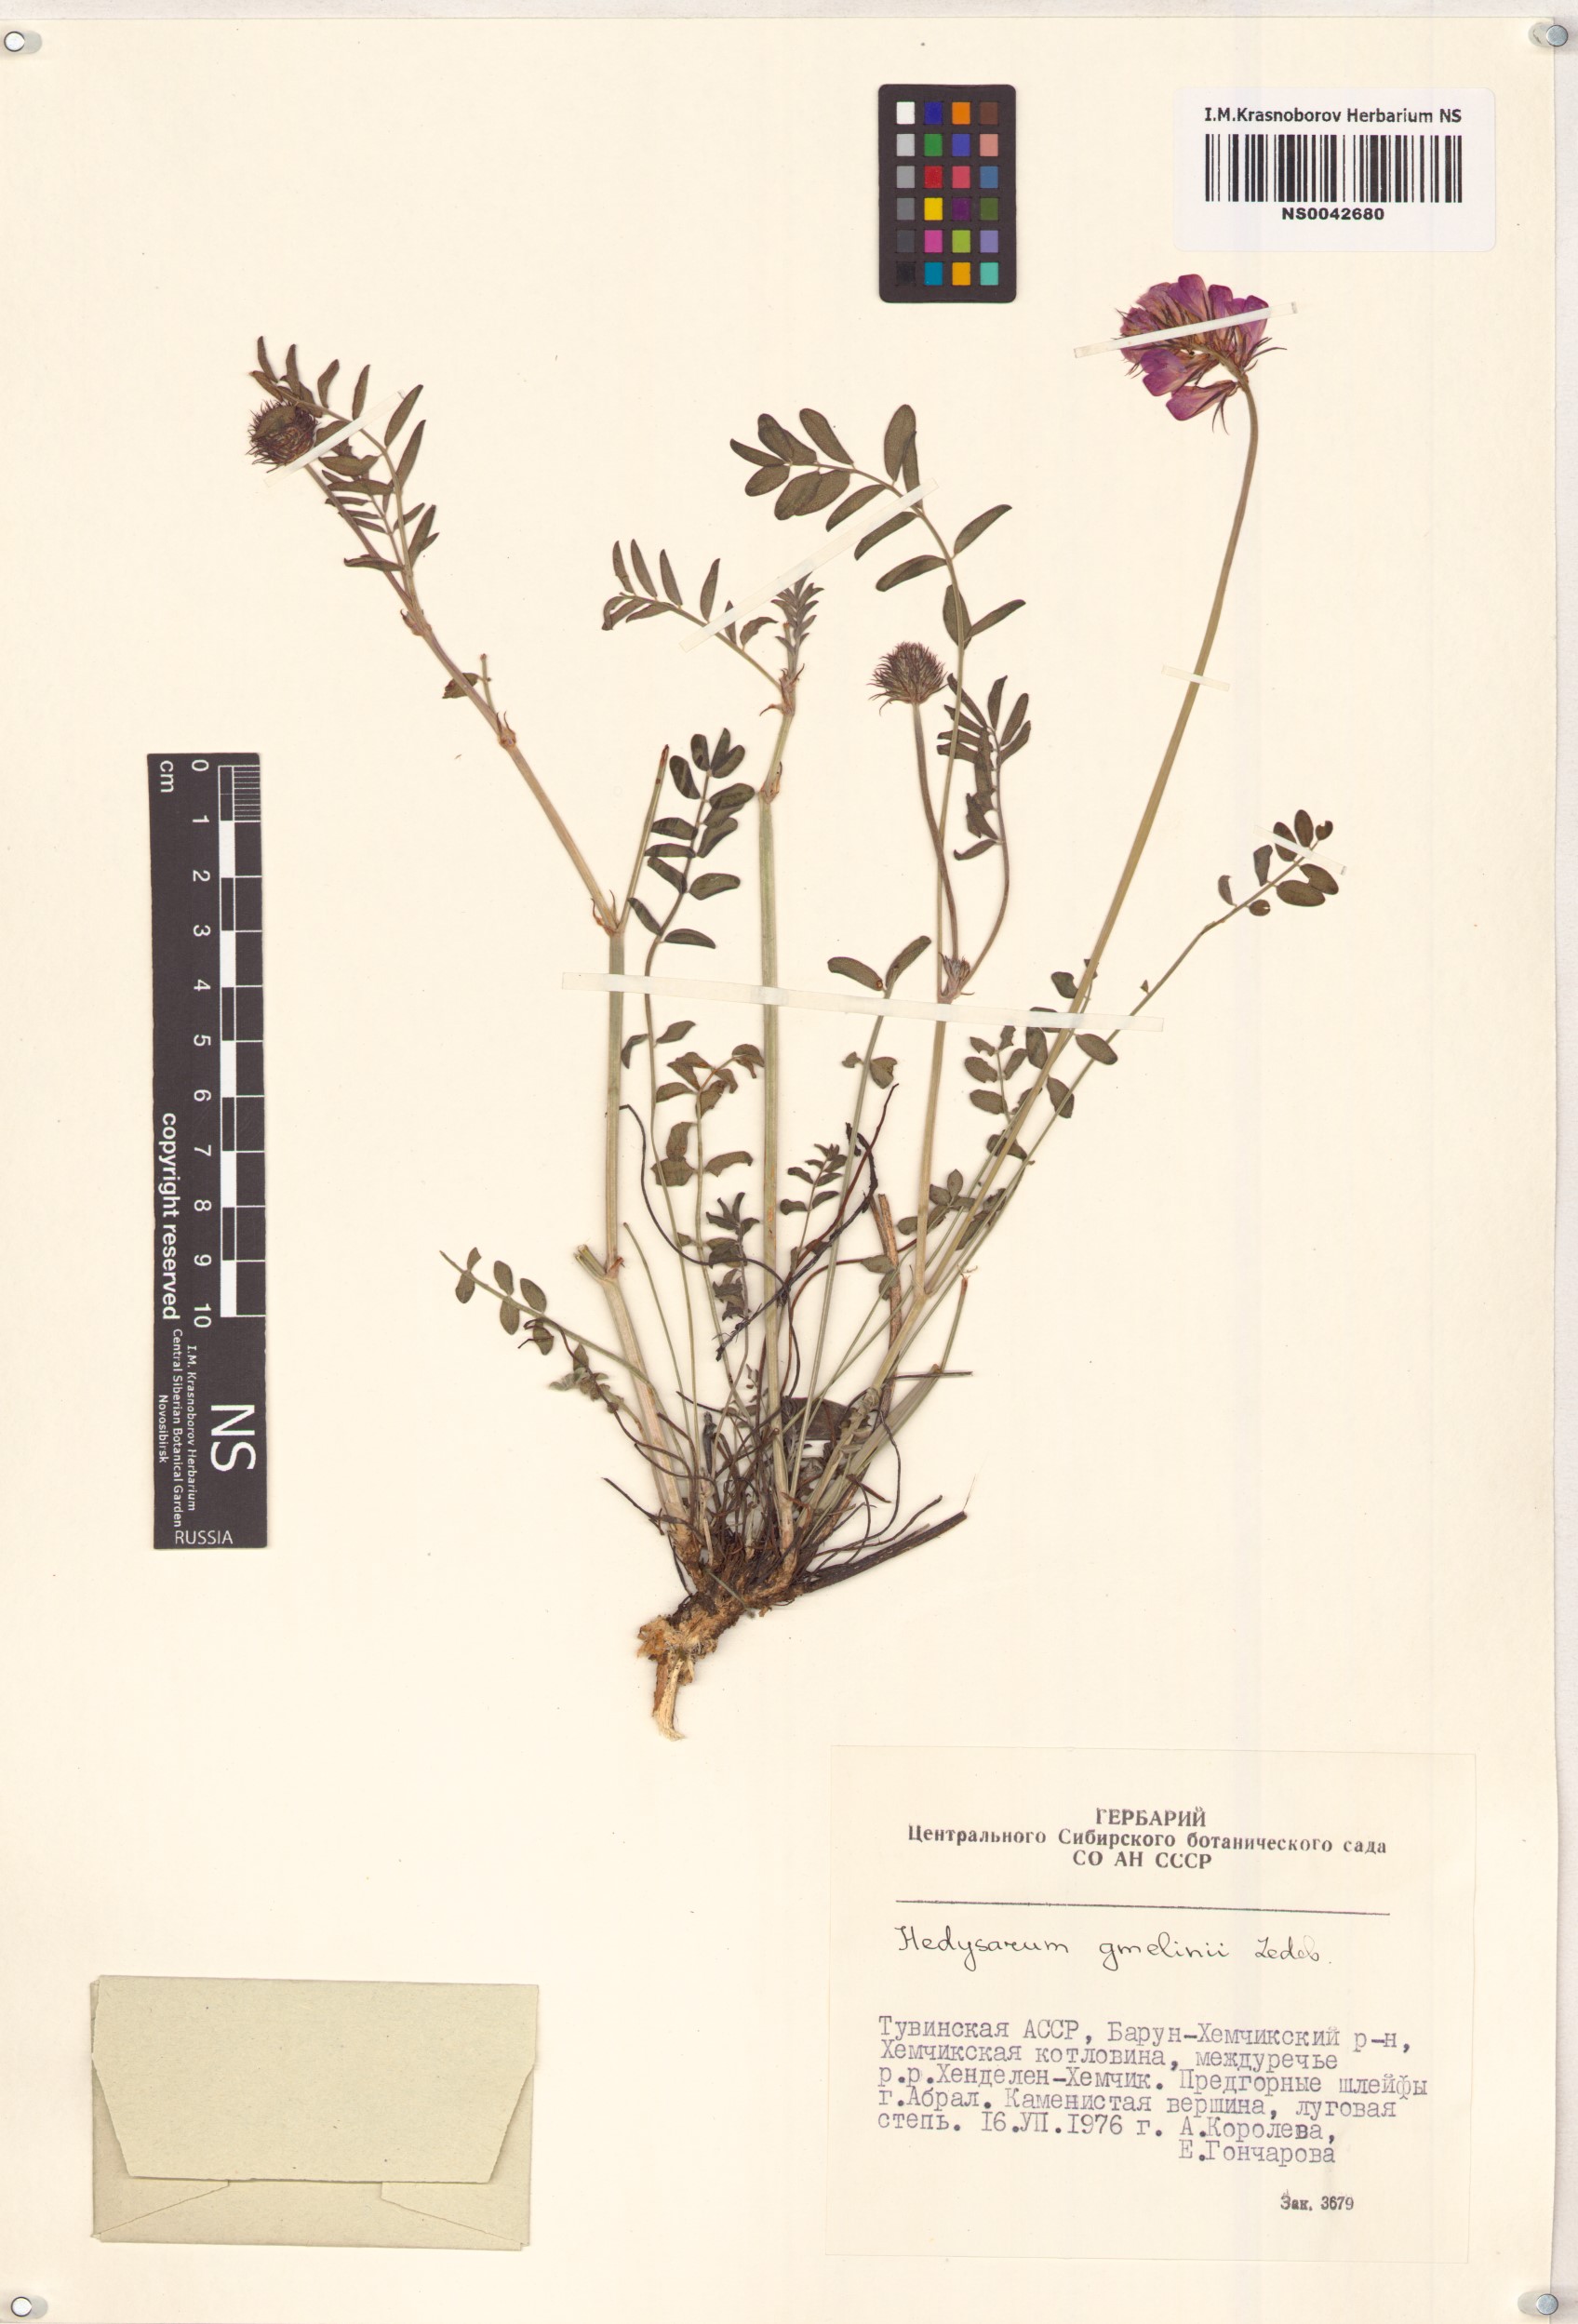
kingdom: Plantae
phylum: Tracheophyta
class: Magnoliopsida
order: Fabales
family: Fabaceae
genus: Hedysarum
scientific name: Hedysarum gmelinii
